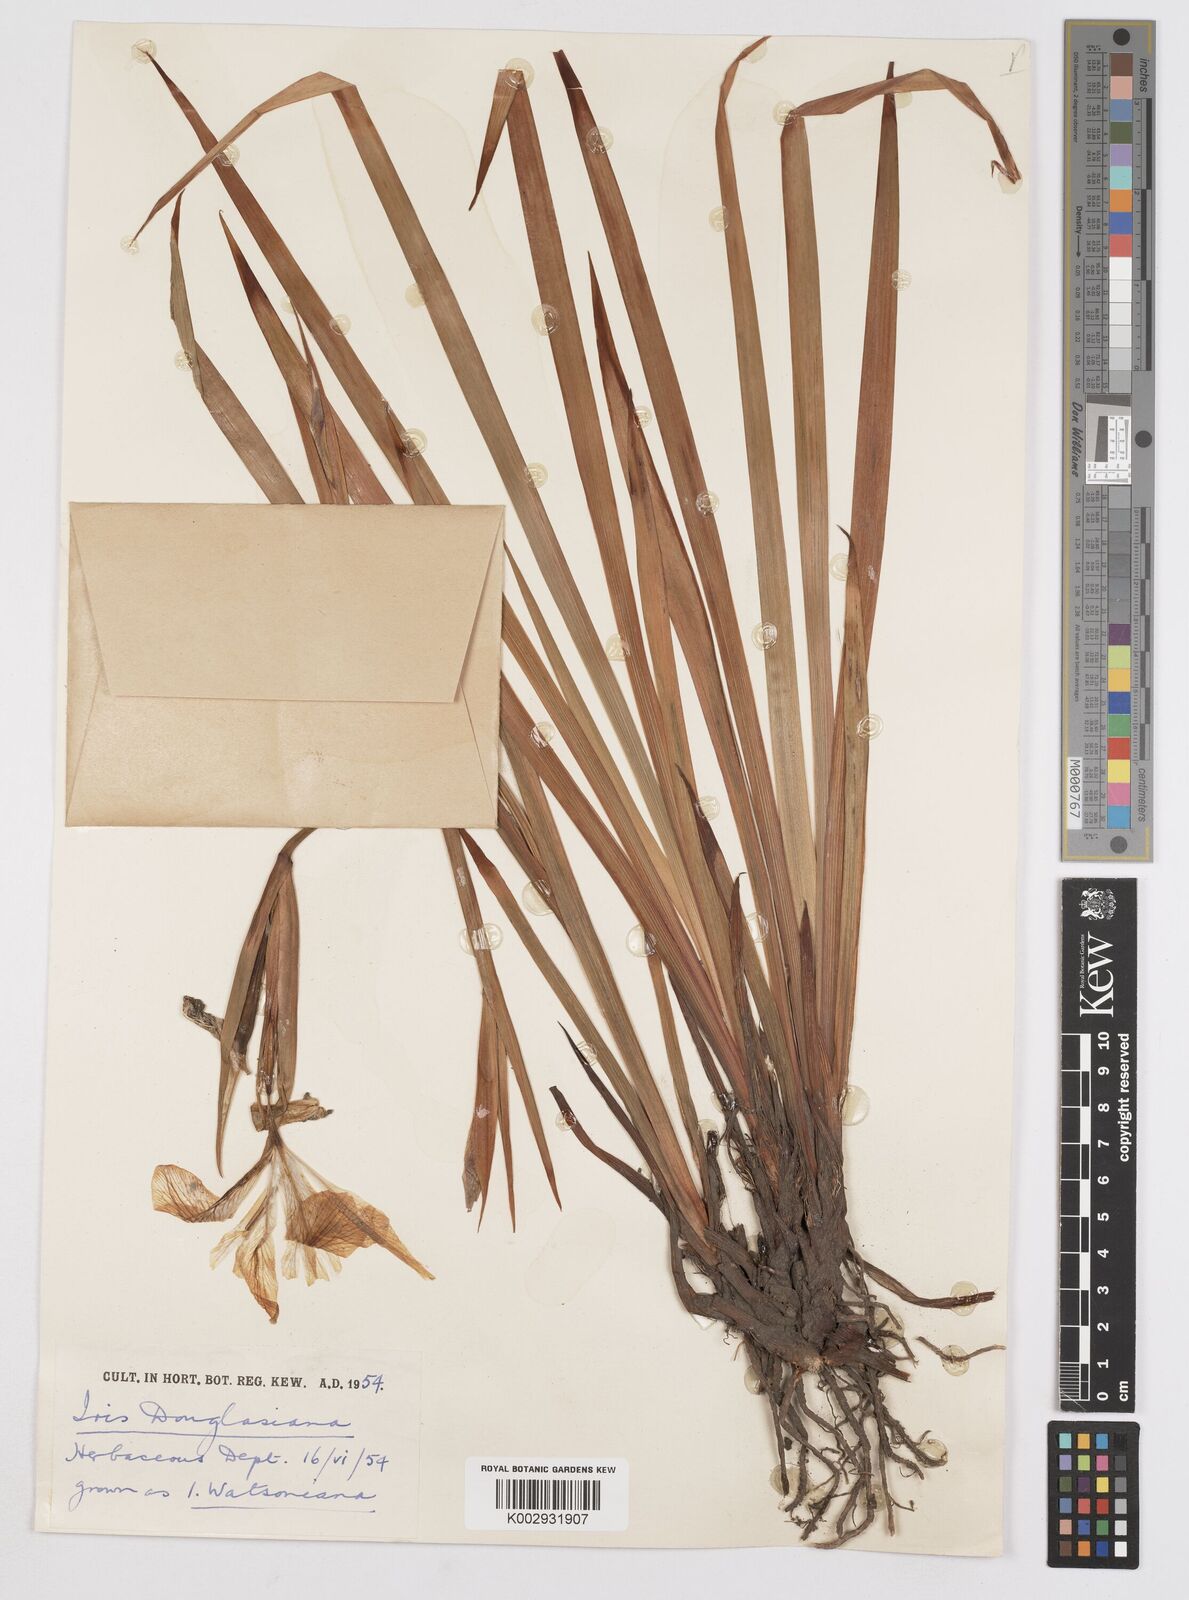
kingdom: Plantae
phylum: Tracheophyta
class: Liliopsida
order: Asparagales
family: Iridaceae
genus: Iris
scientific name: Iris douglasiana
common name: Marin iris
